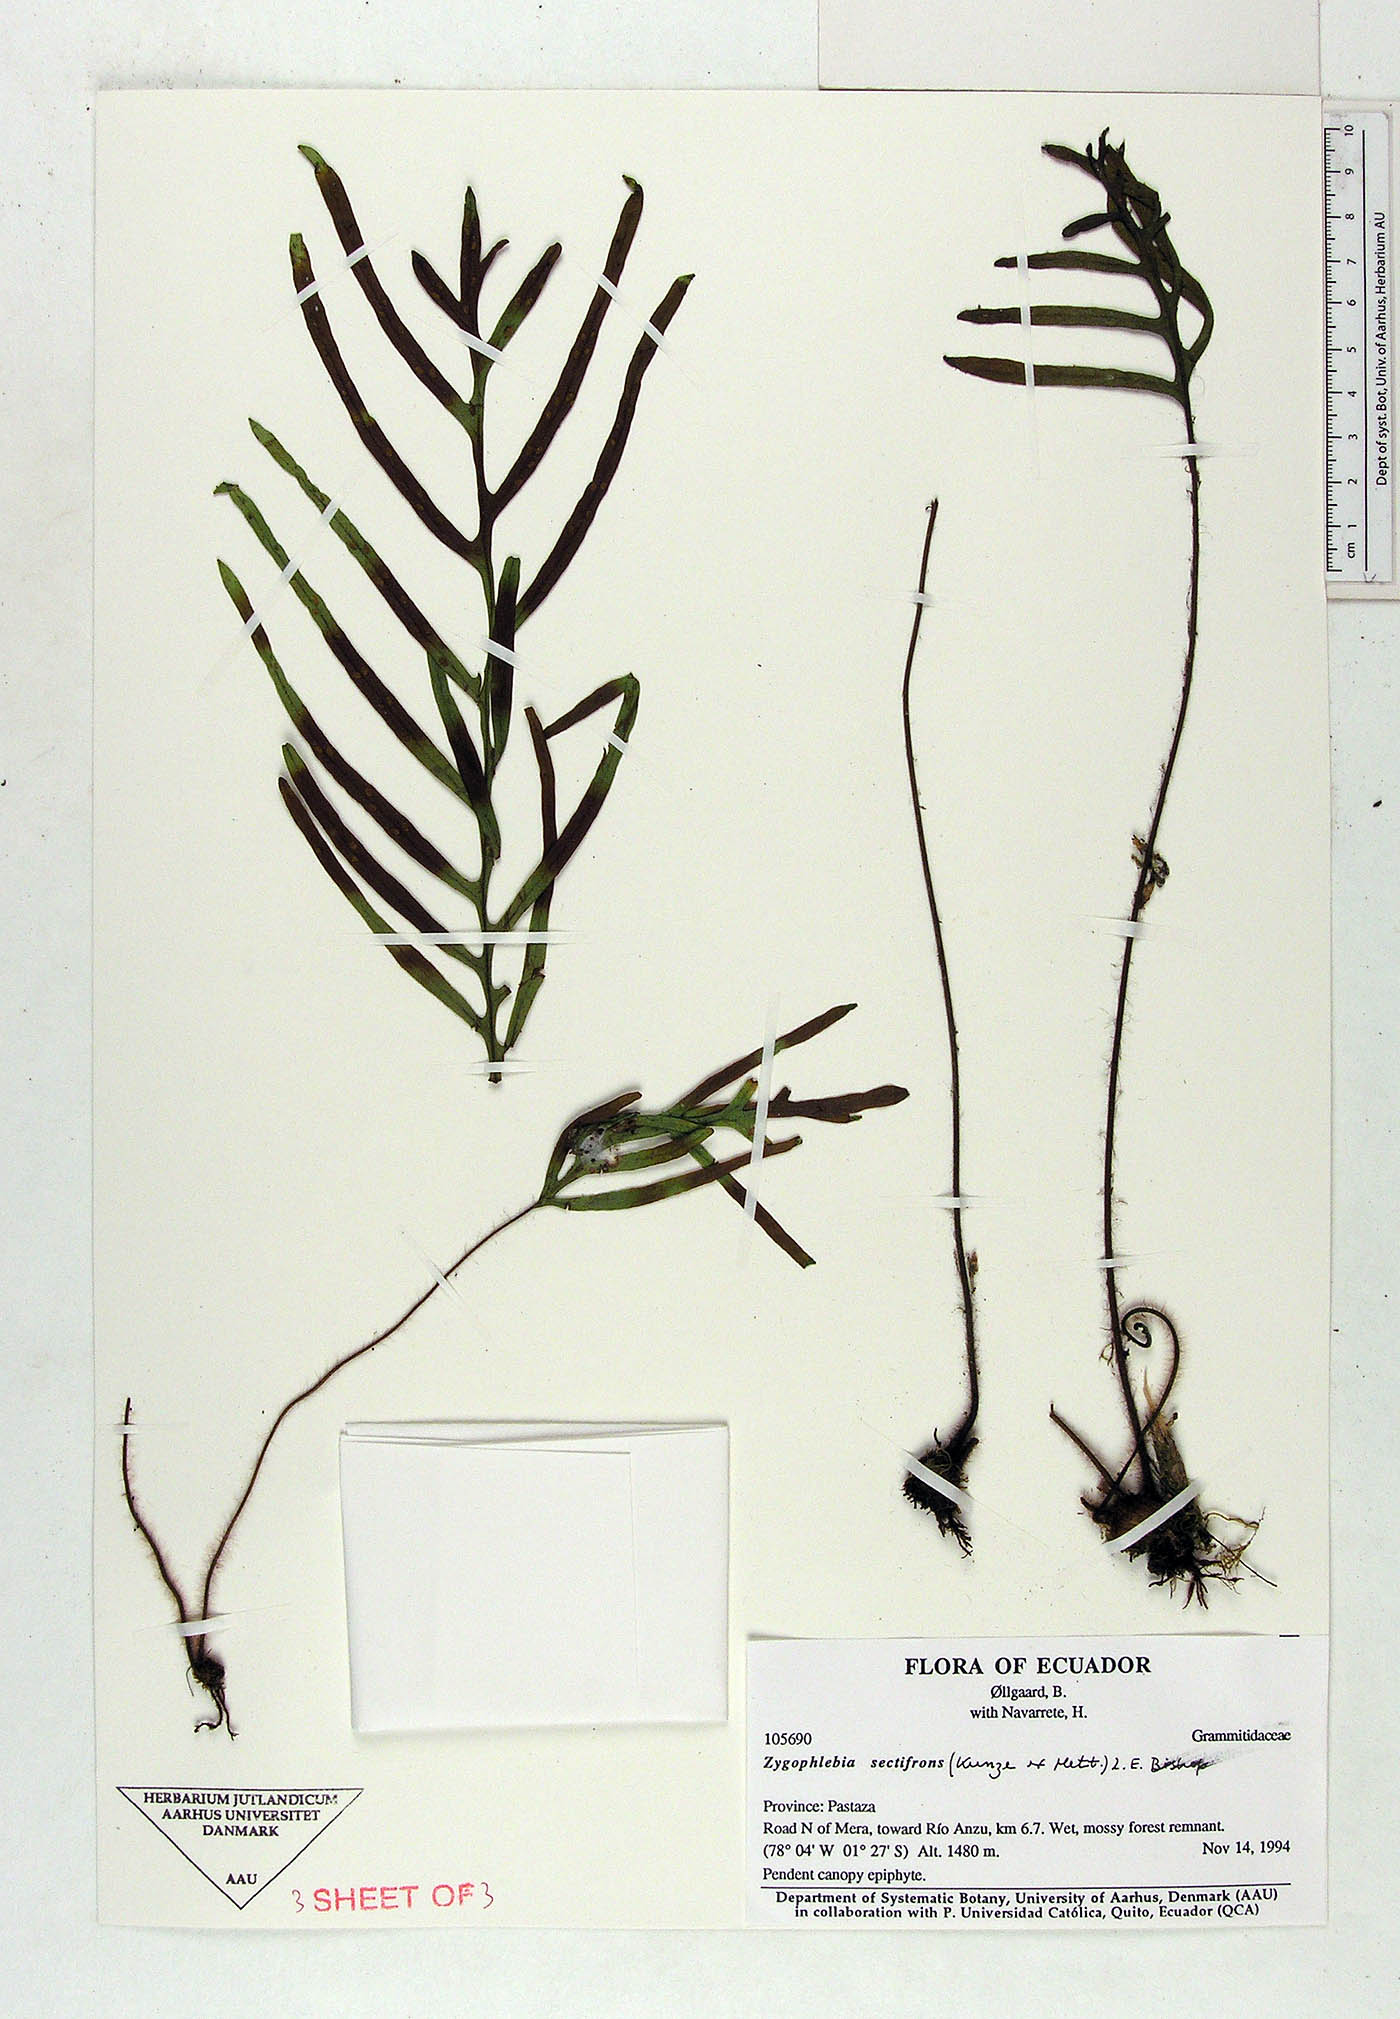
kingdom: Plantae
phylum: Tracheophyta
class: Polypodiopsida
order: Polypodiales
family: Polypodiaceae
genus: Enterosora
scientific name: Enterosora sectifrons
